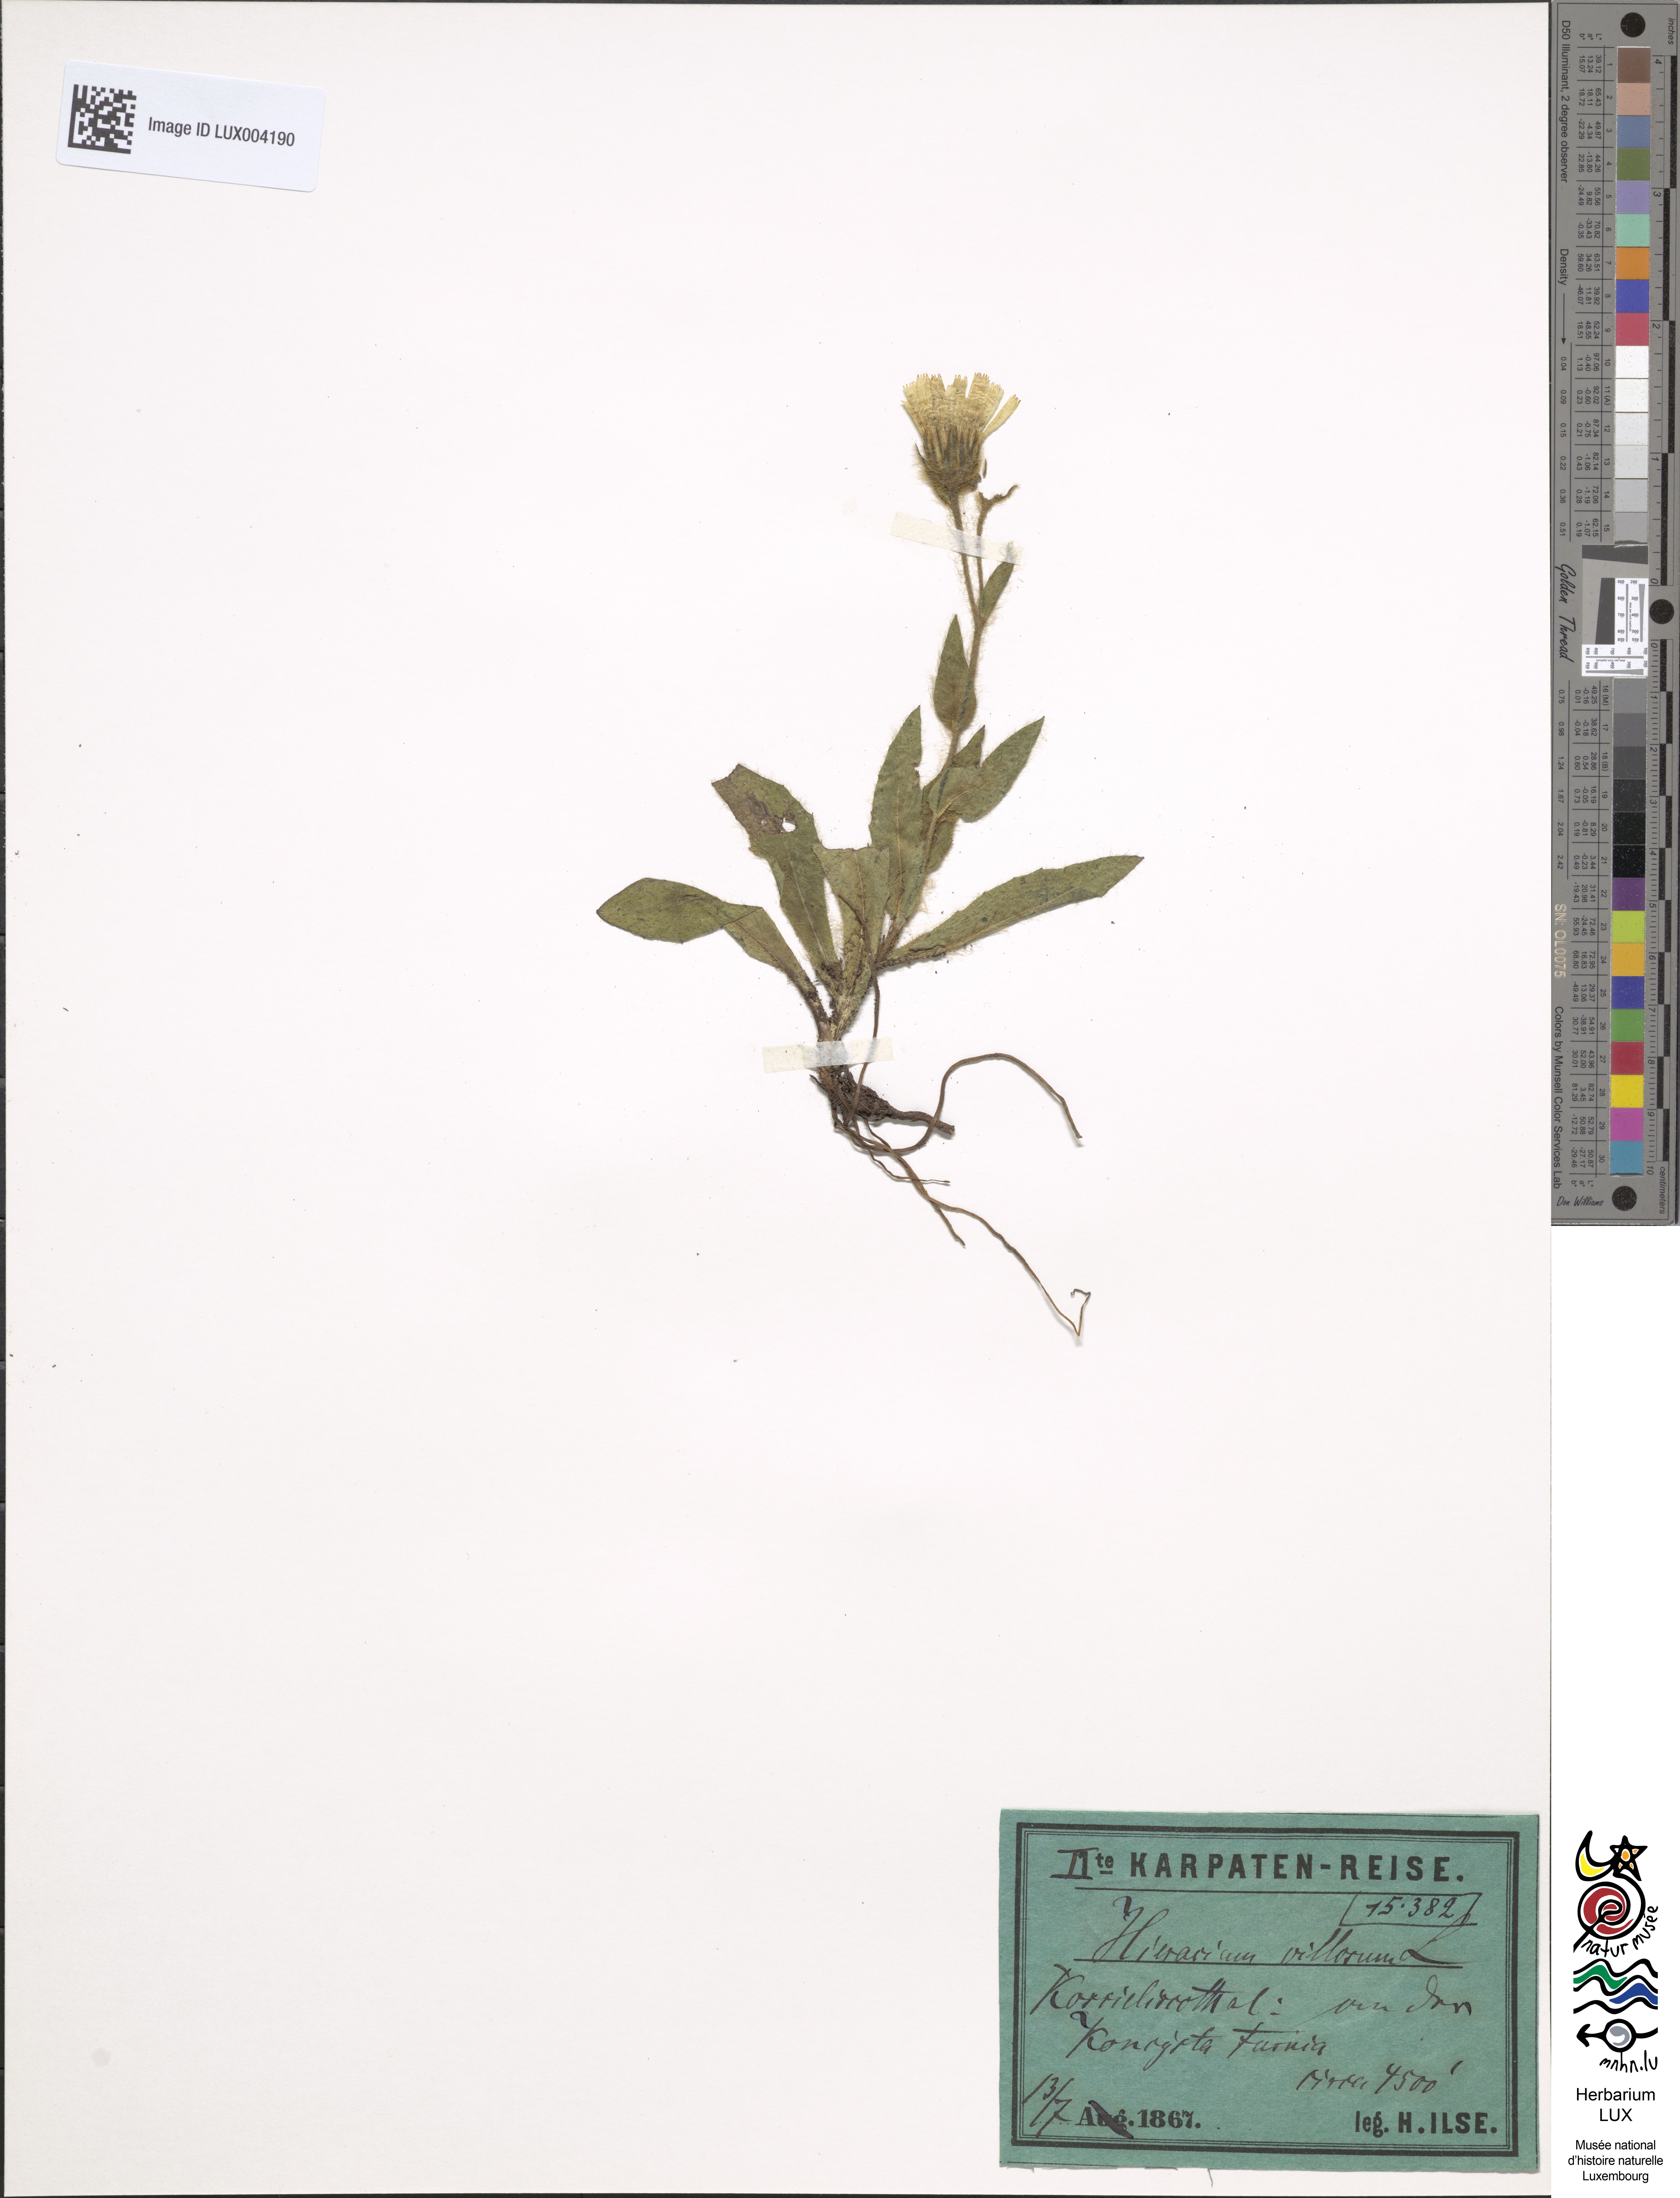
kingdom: Plantae
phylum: Tracheophyta
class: Magnoliopsida
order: Asterales
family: Asteraceae
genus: Hieracium
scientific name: Hieracium villosum
